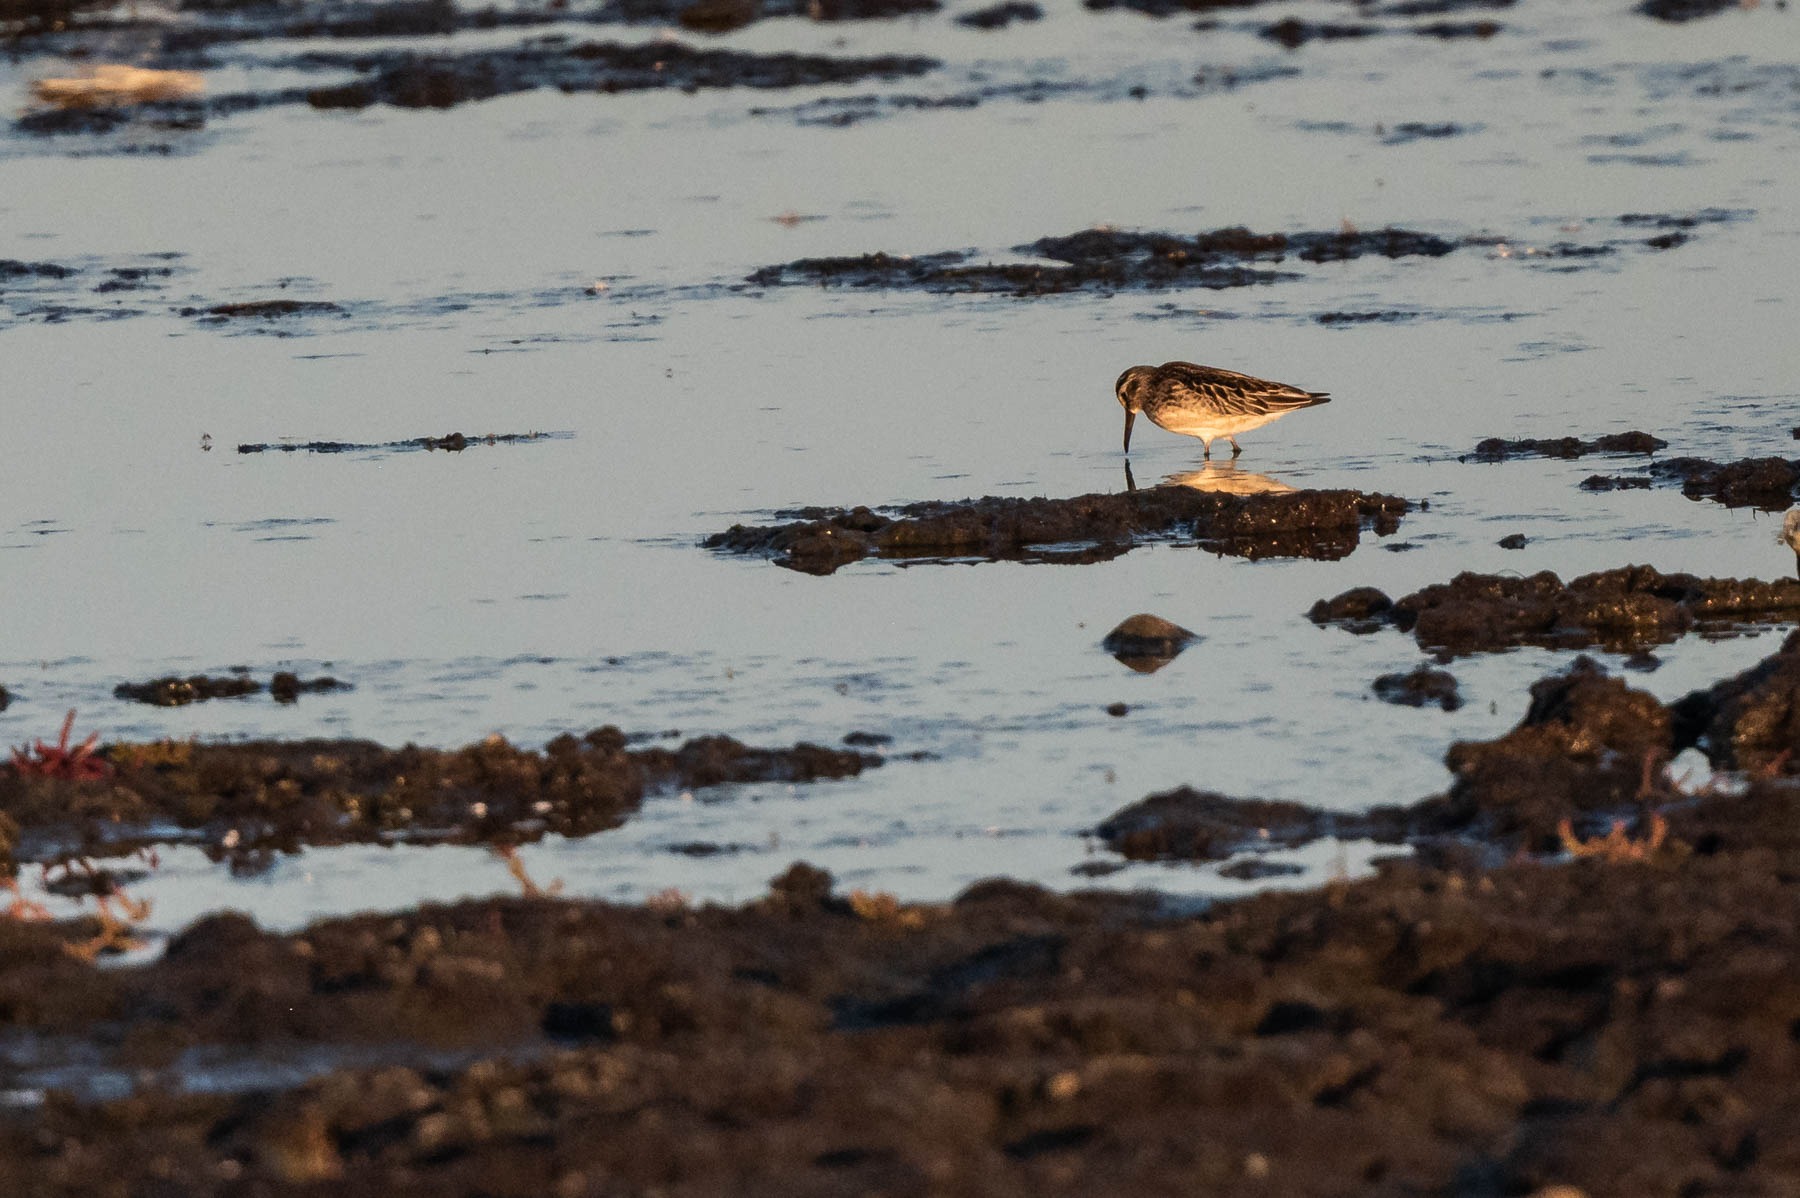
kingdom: Animalia
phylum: Chordata
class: Aves
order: Charadriiformes
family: Scolopacidae
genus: Calidris
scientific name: Calidris falcinellus
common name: Kærløber
